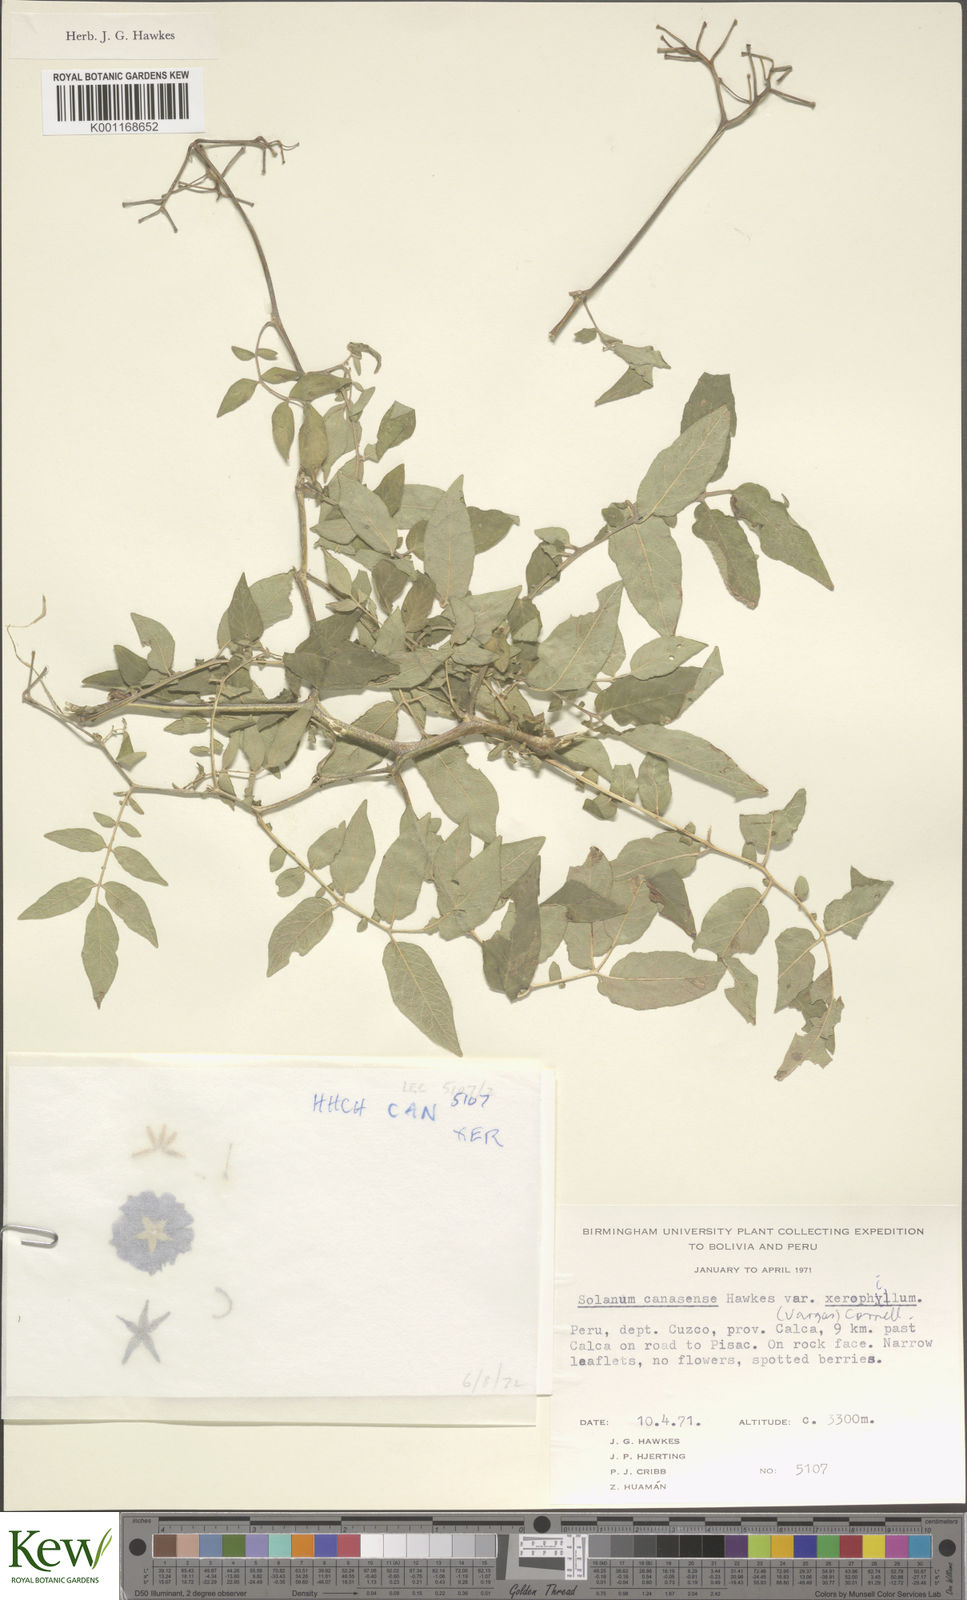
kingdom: Plantae
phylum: Tracheophyta
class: Magnoliopsida
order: Solanales
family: Solanaceae
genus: Solanum
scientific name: Solanum candolleanum
